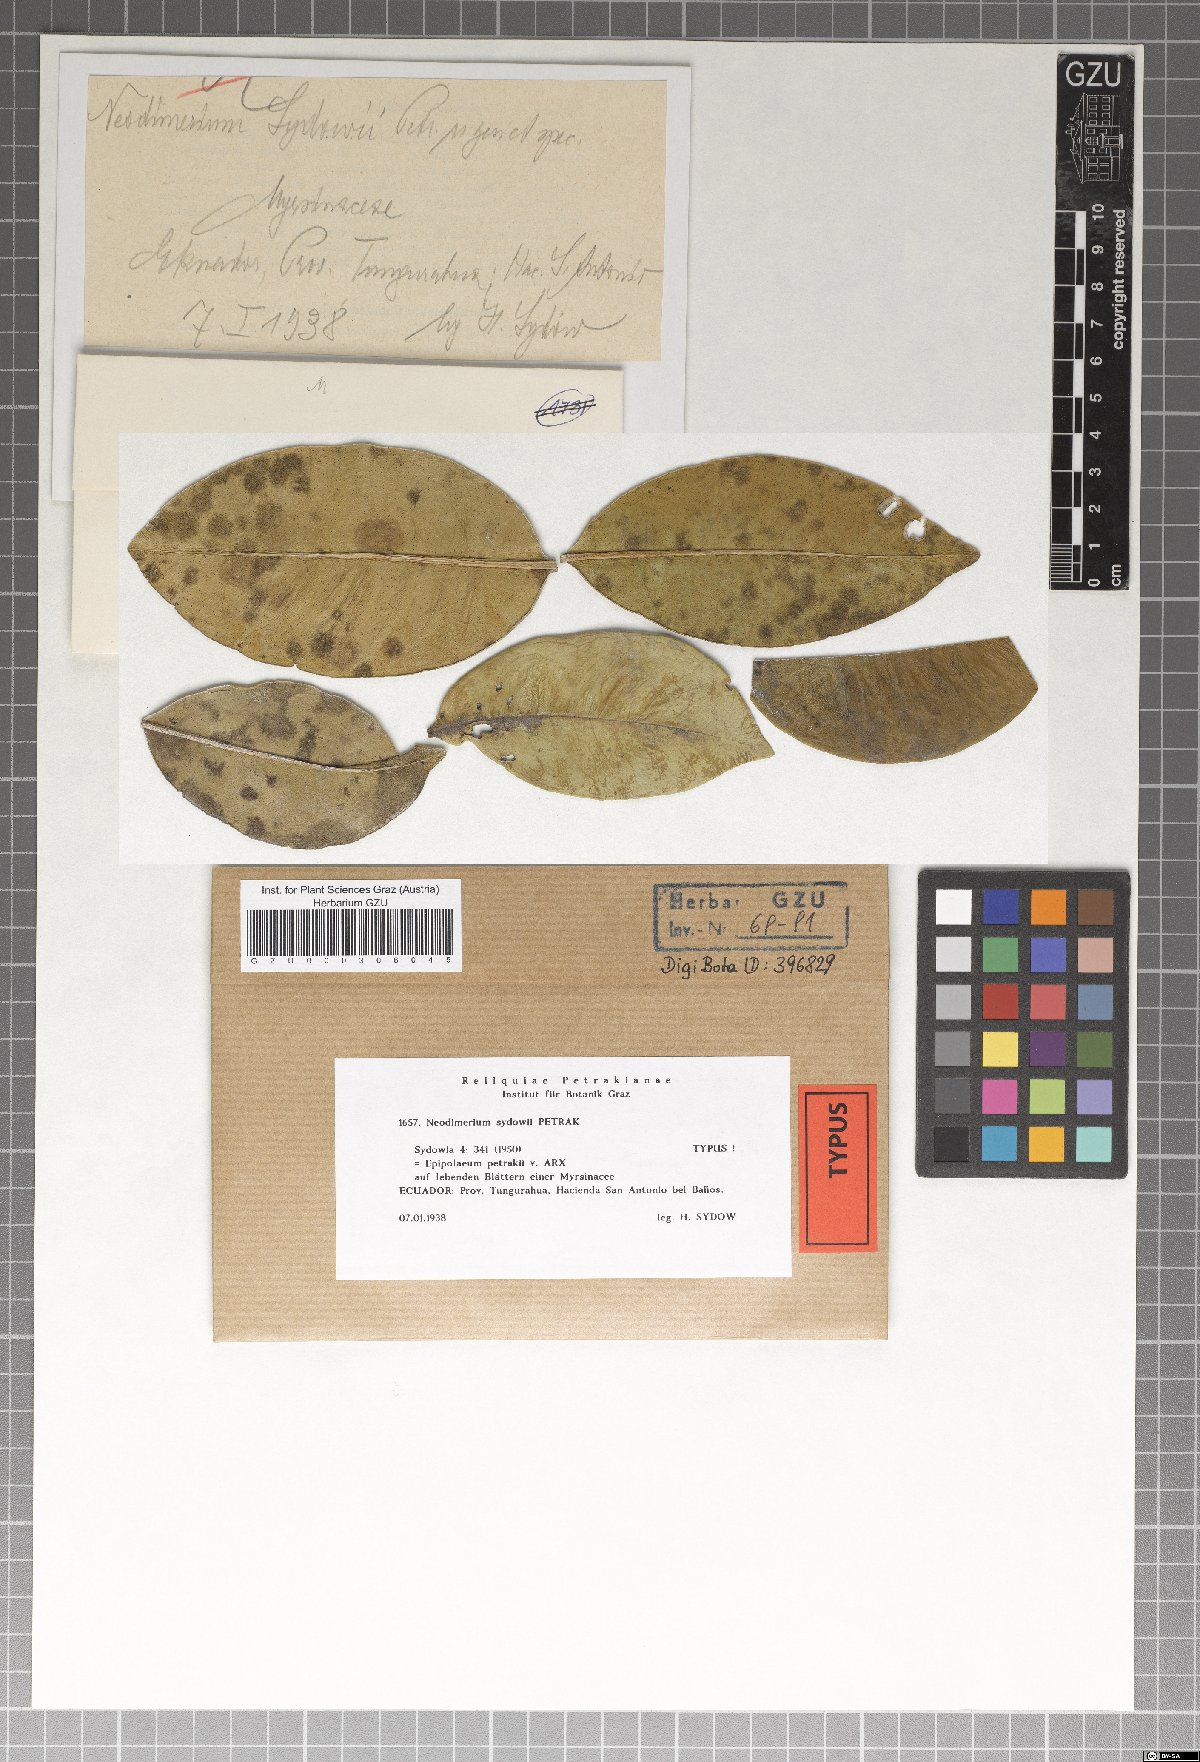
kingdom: Fungi
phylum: Ascomycota
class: Dothideomycetes
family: Pseudoperisporiaceae
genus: Epipolaeum
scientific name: Epipolaeum petrakii
